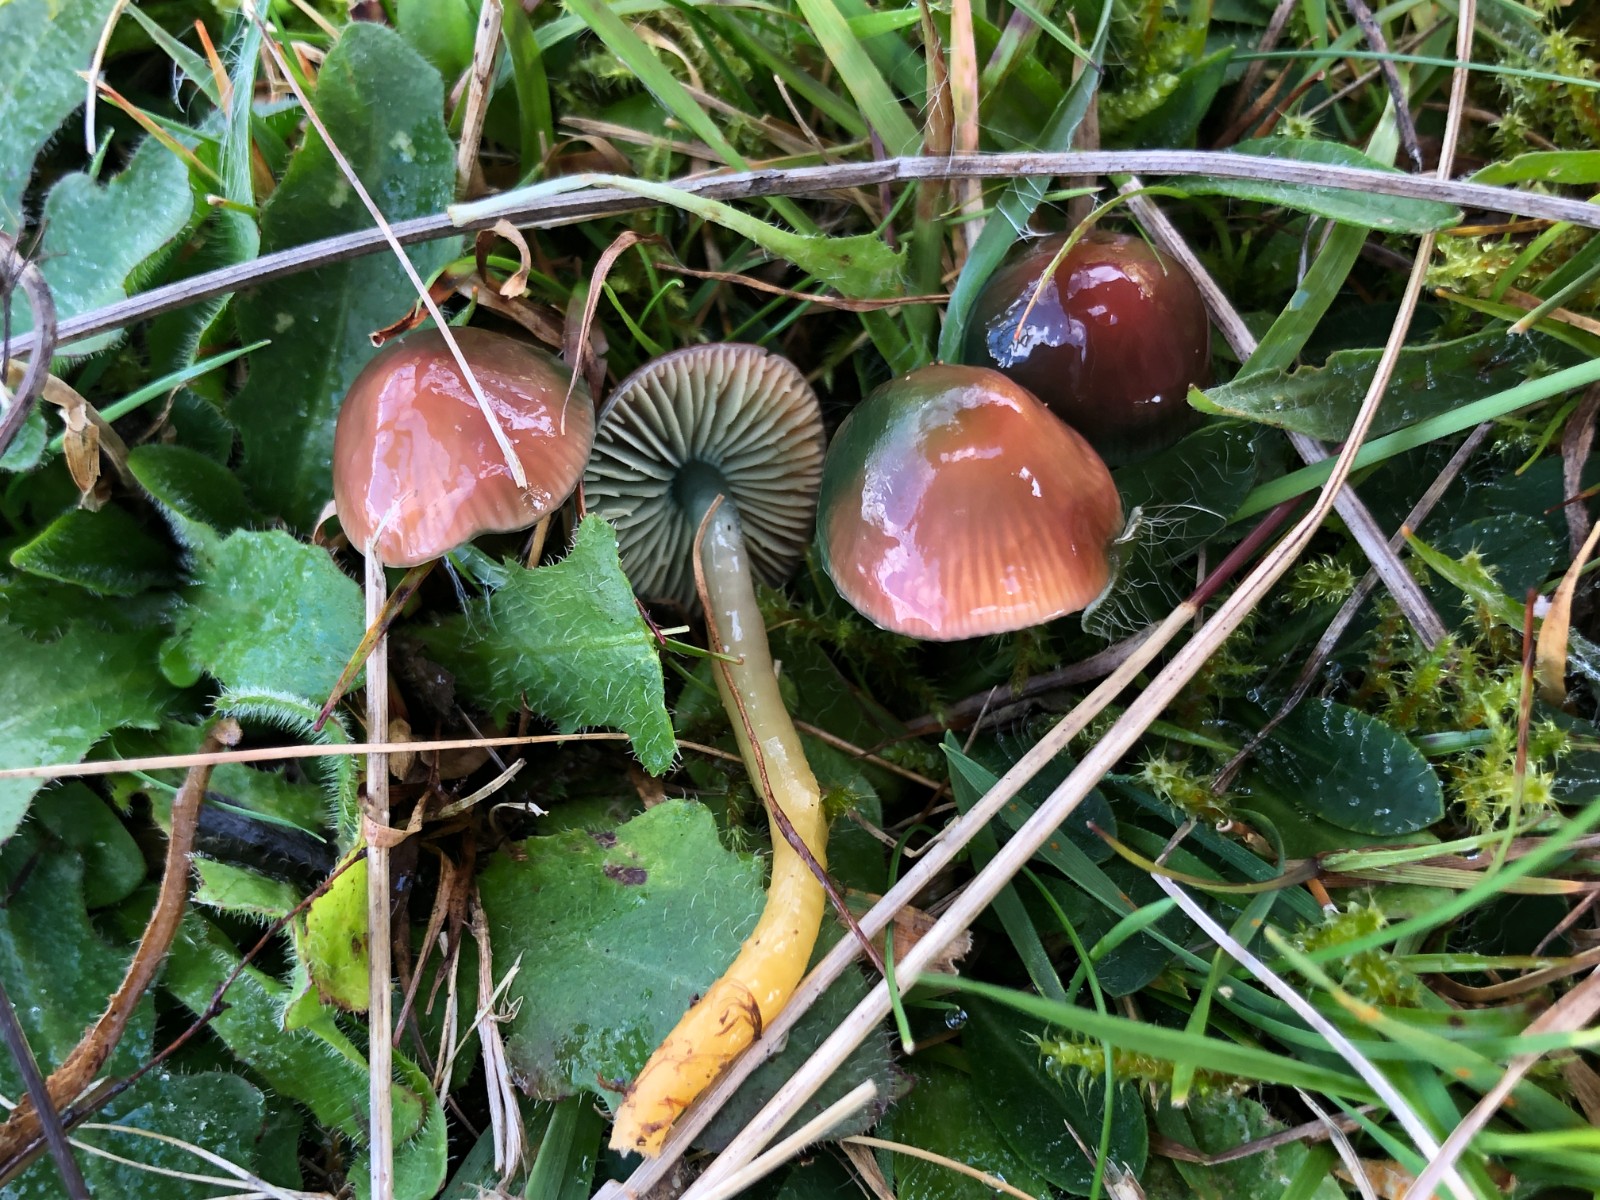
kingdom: Fungi
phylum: Basidiomycota
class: Agaricomycetes
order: Agaricales
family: Hygrophoraceae
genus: Gliophorus
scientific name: Gliophorus psittacinus
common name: papegøje-vokshat
